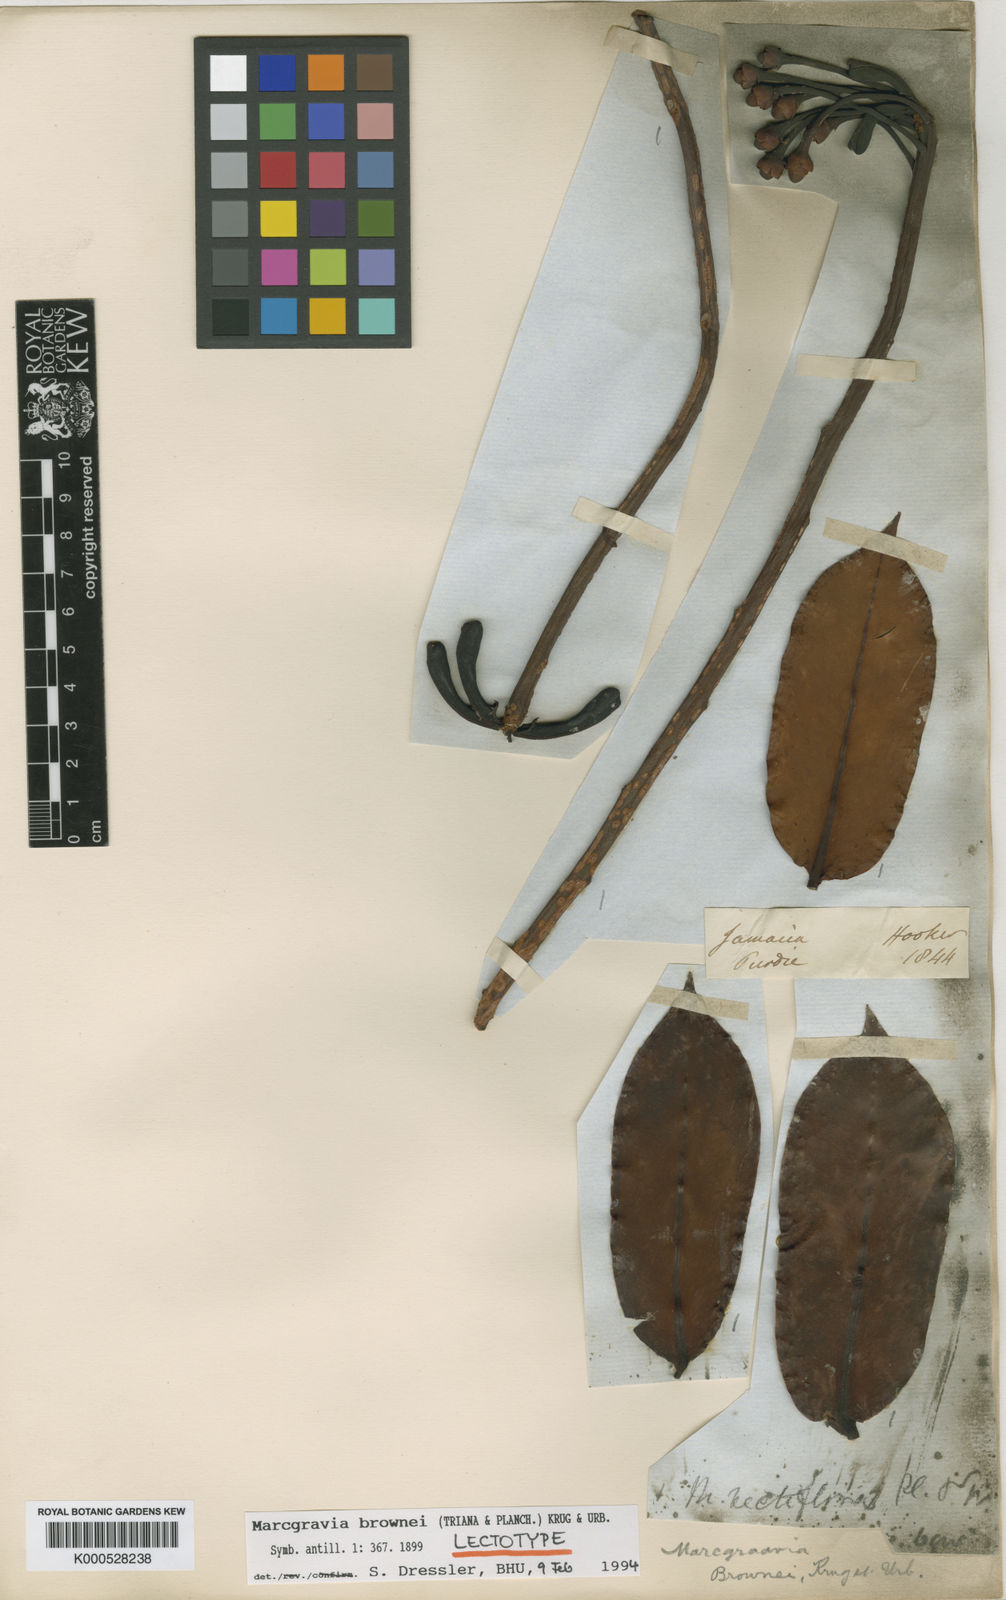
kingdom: Plantae
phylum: Tracheophyta
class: Magnoliopsida
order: Ericales
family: Marcgraviaceae
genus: Marcgravia
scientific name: Marcgravia brownei
